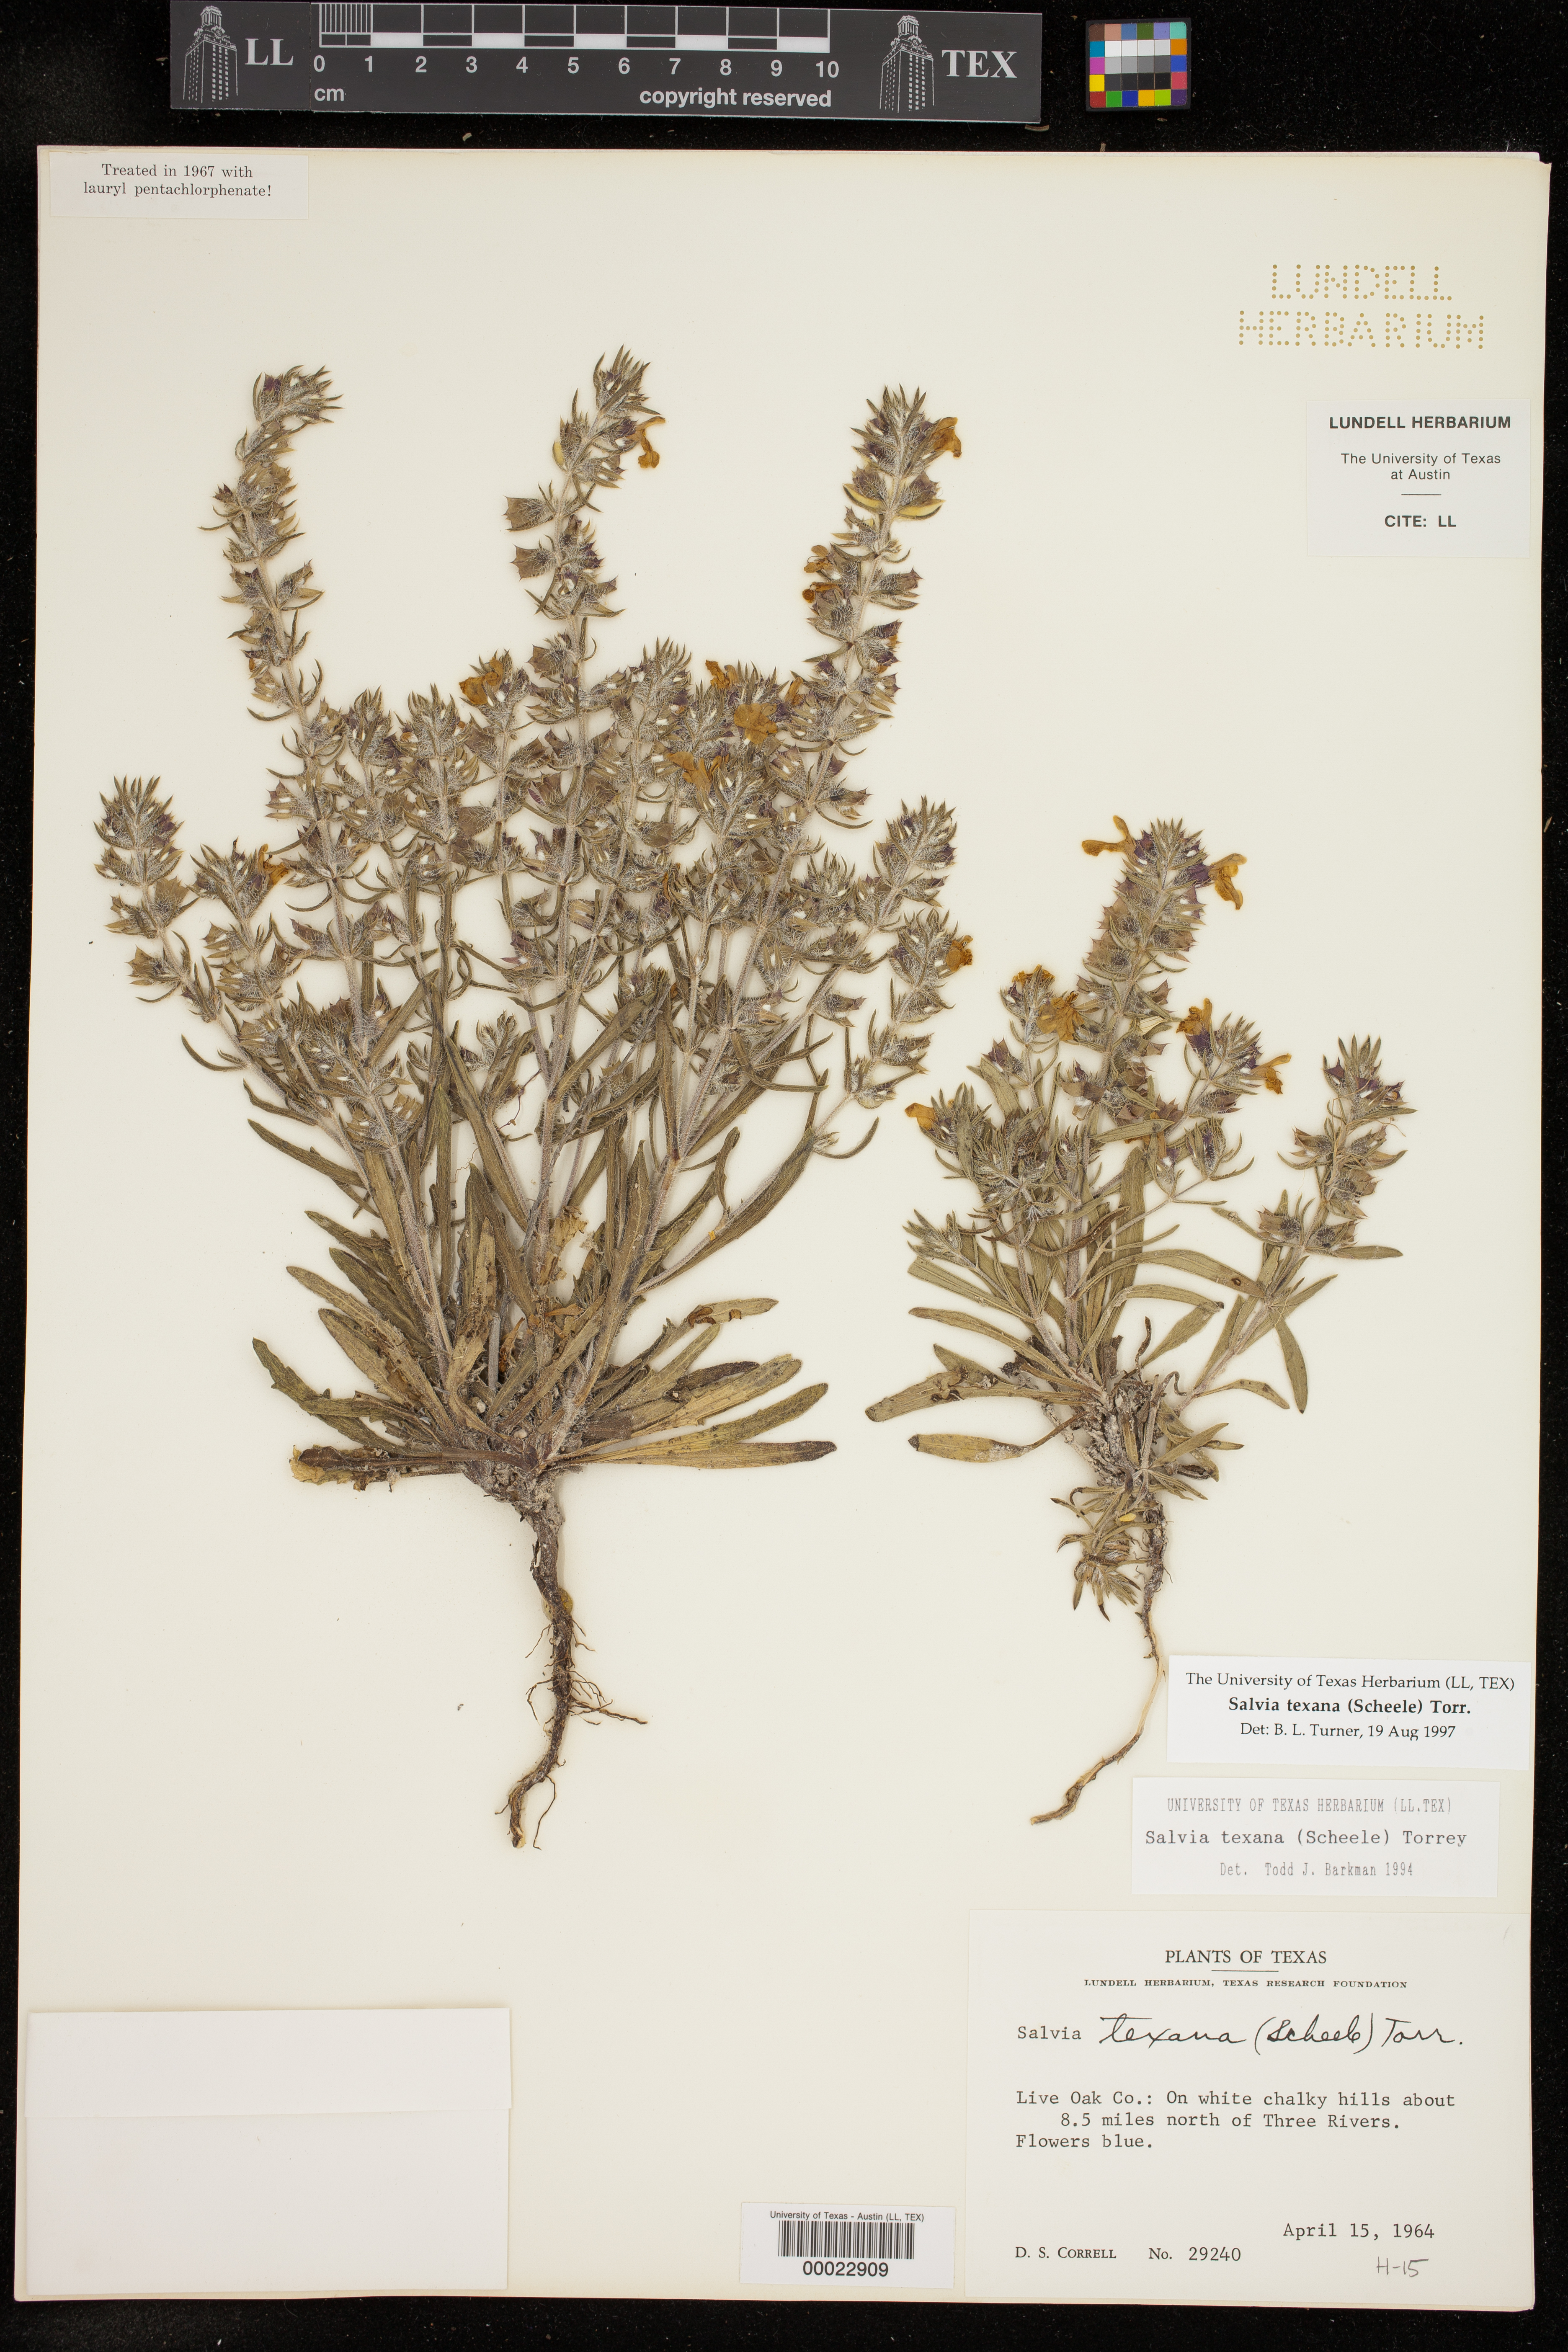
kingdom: Plantae
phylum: Tracheophyta
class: Magnoliopsida
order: Lamiales
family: Lamiaceae
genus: Salvia
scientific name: Salvia texana
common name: Texas sage
